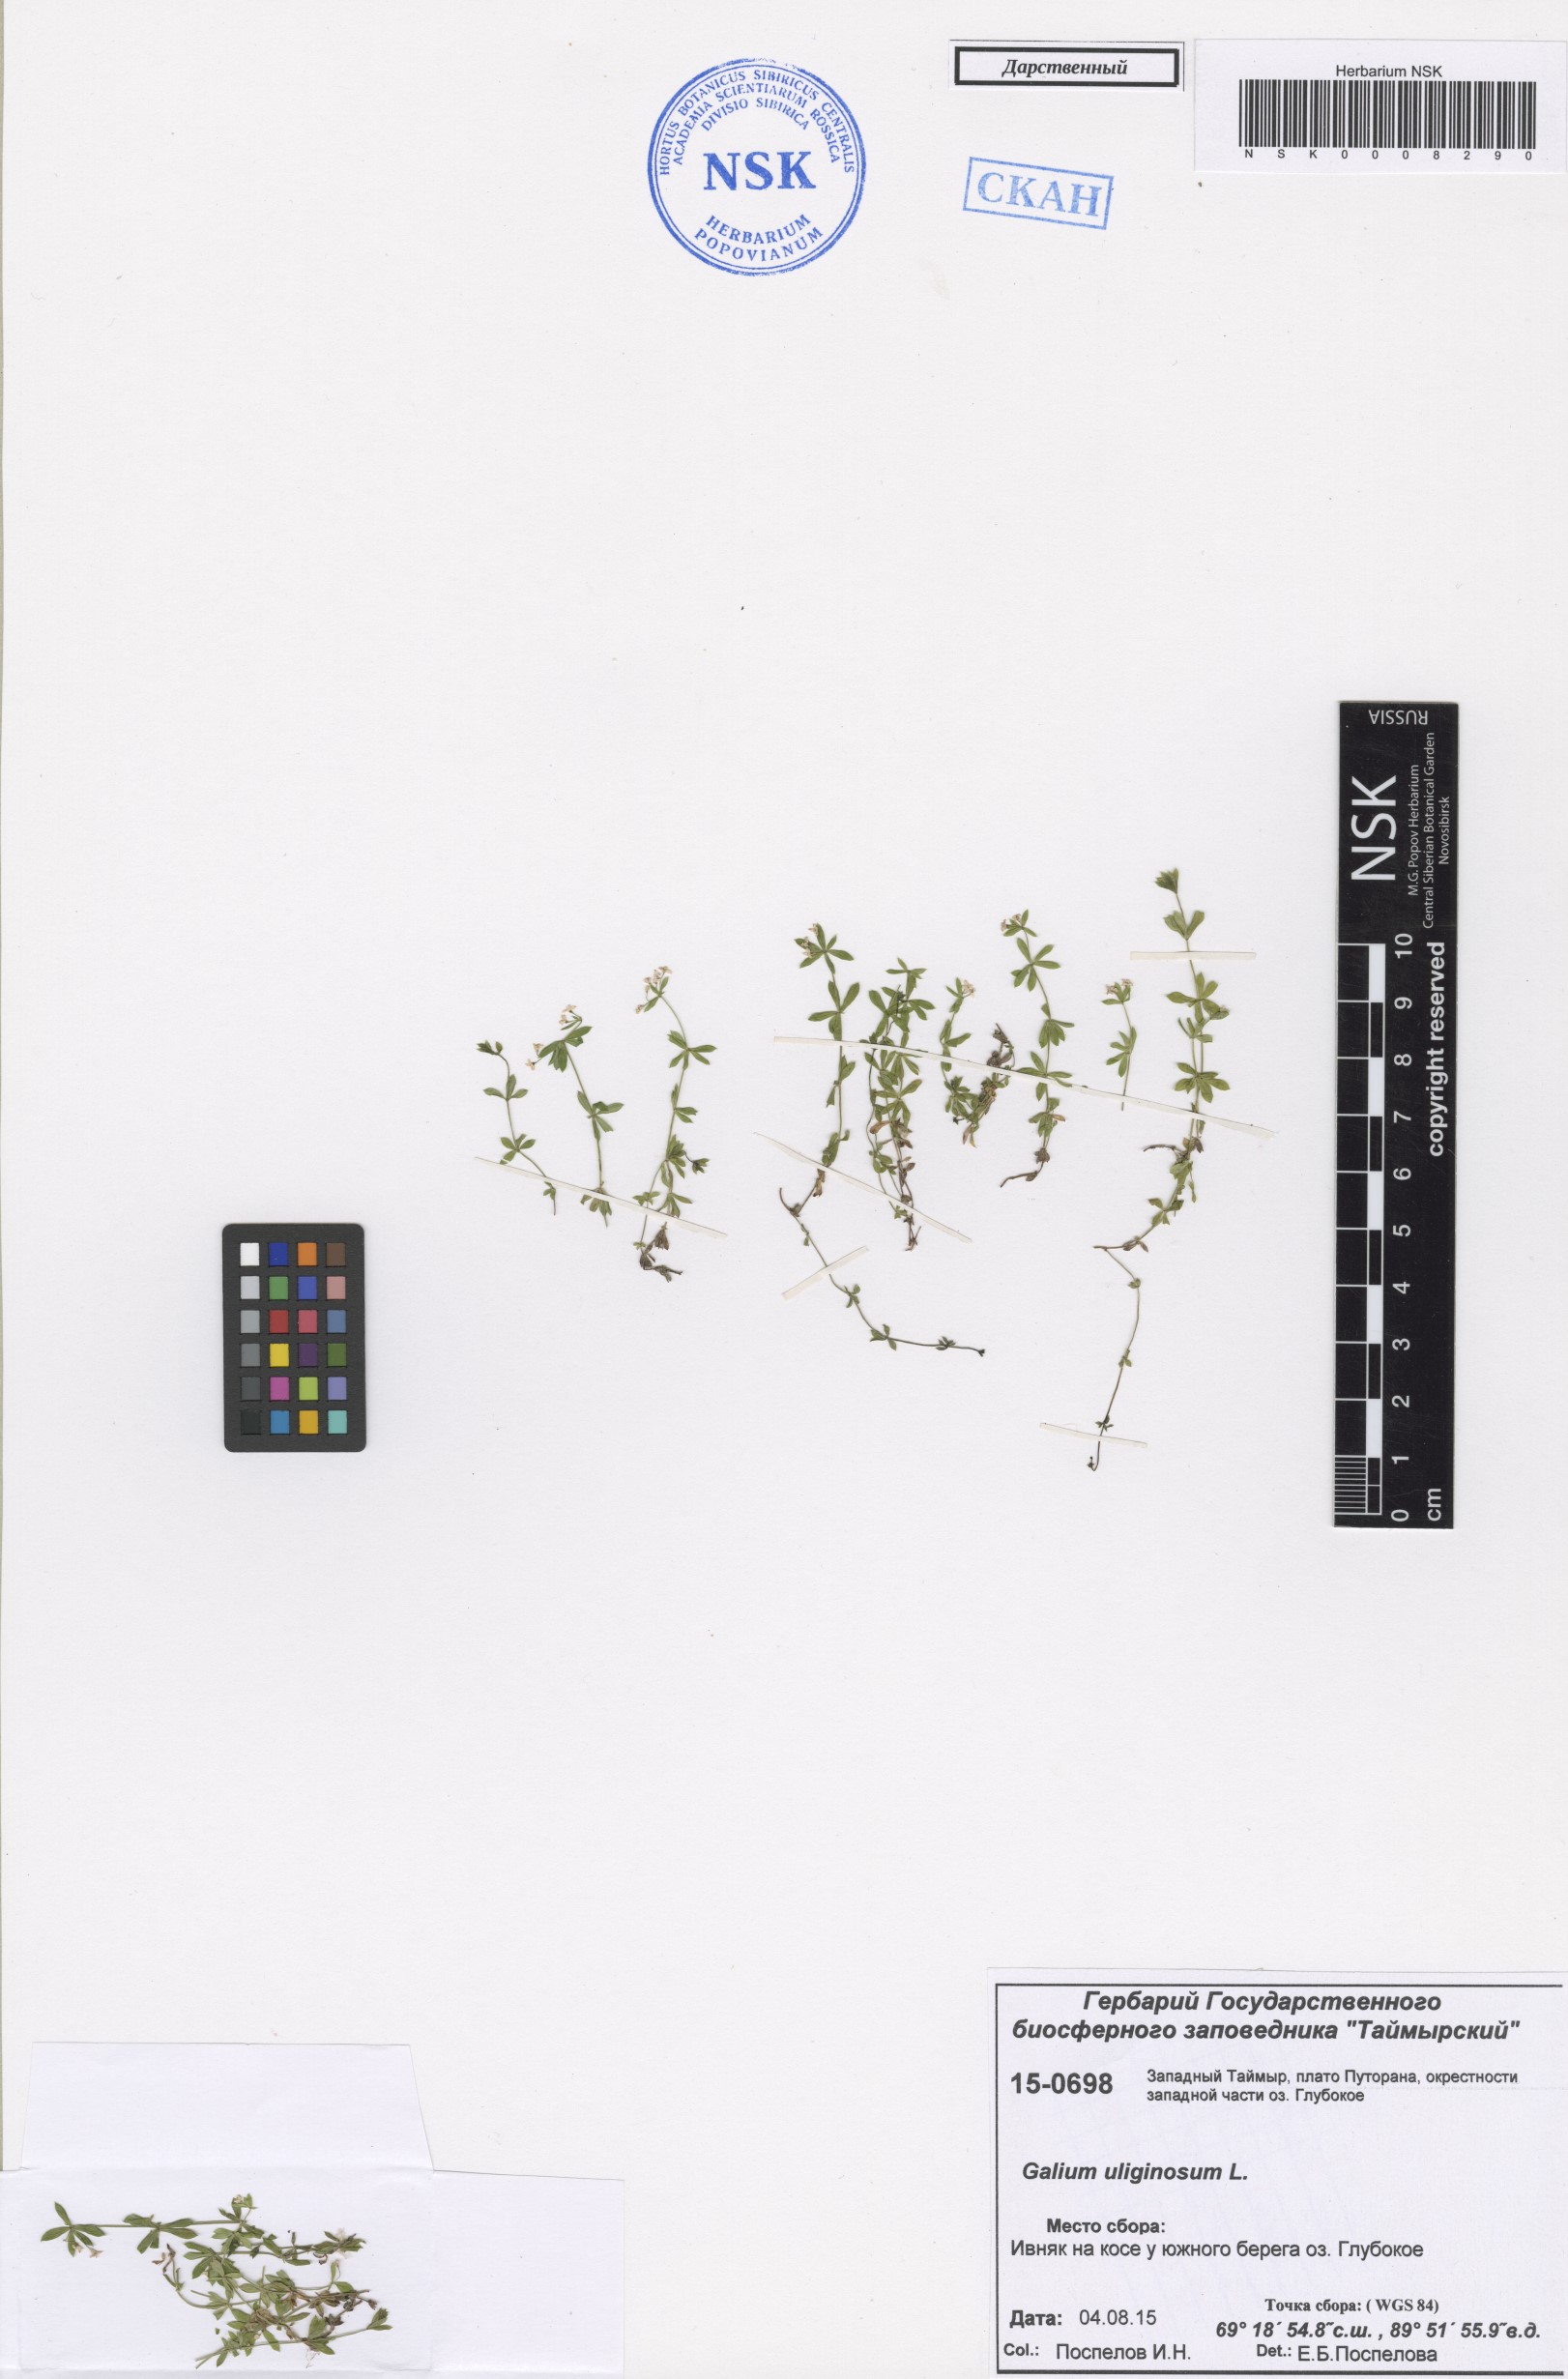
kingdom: Plantae
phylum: Tracheophyta
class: Magnoliopsida
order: Gentianales
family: Rubiaceae
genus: Galium
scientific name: Galium uliginosum
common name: Fen bedstraw
